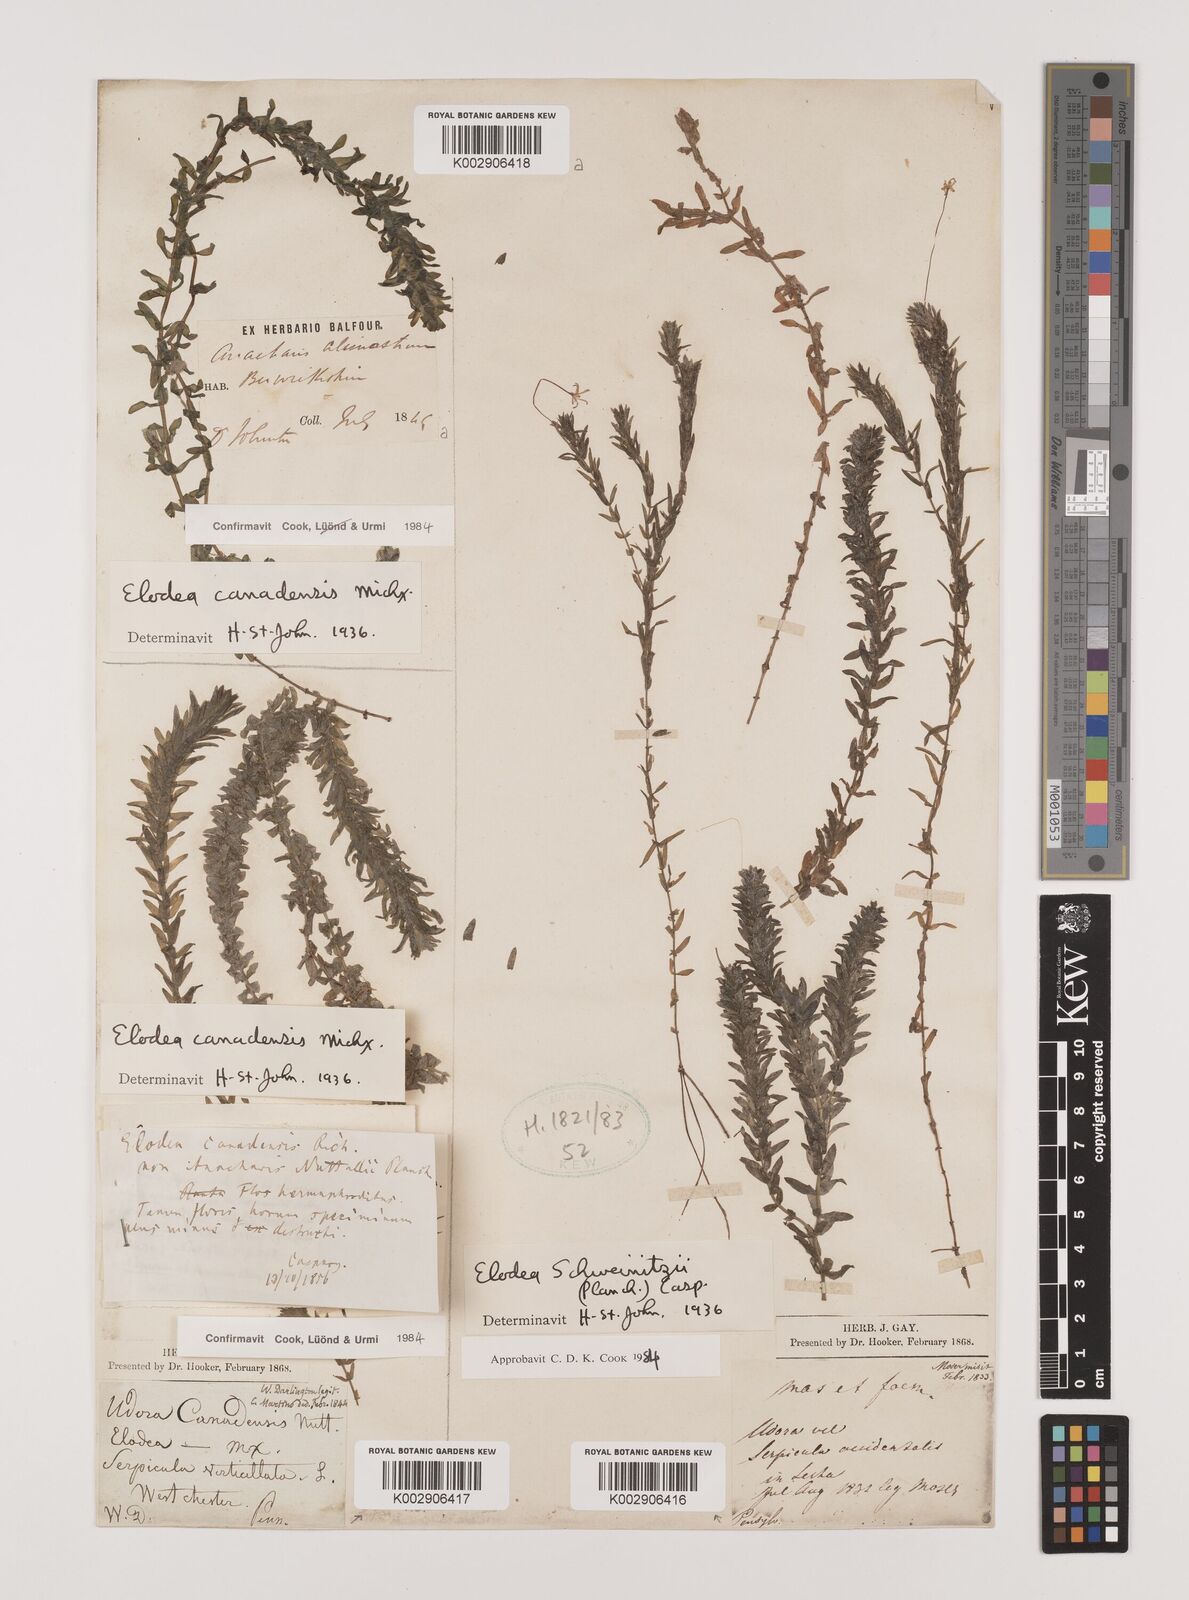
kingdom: Plantae
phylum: Tracheophyta
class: Liliopsida
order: Alismatales
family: Hydrocharitaceae
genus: Elodea
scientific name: Elodea canadensis
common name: Canadian waterweed
